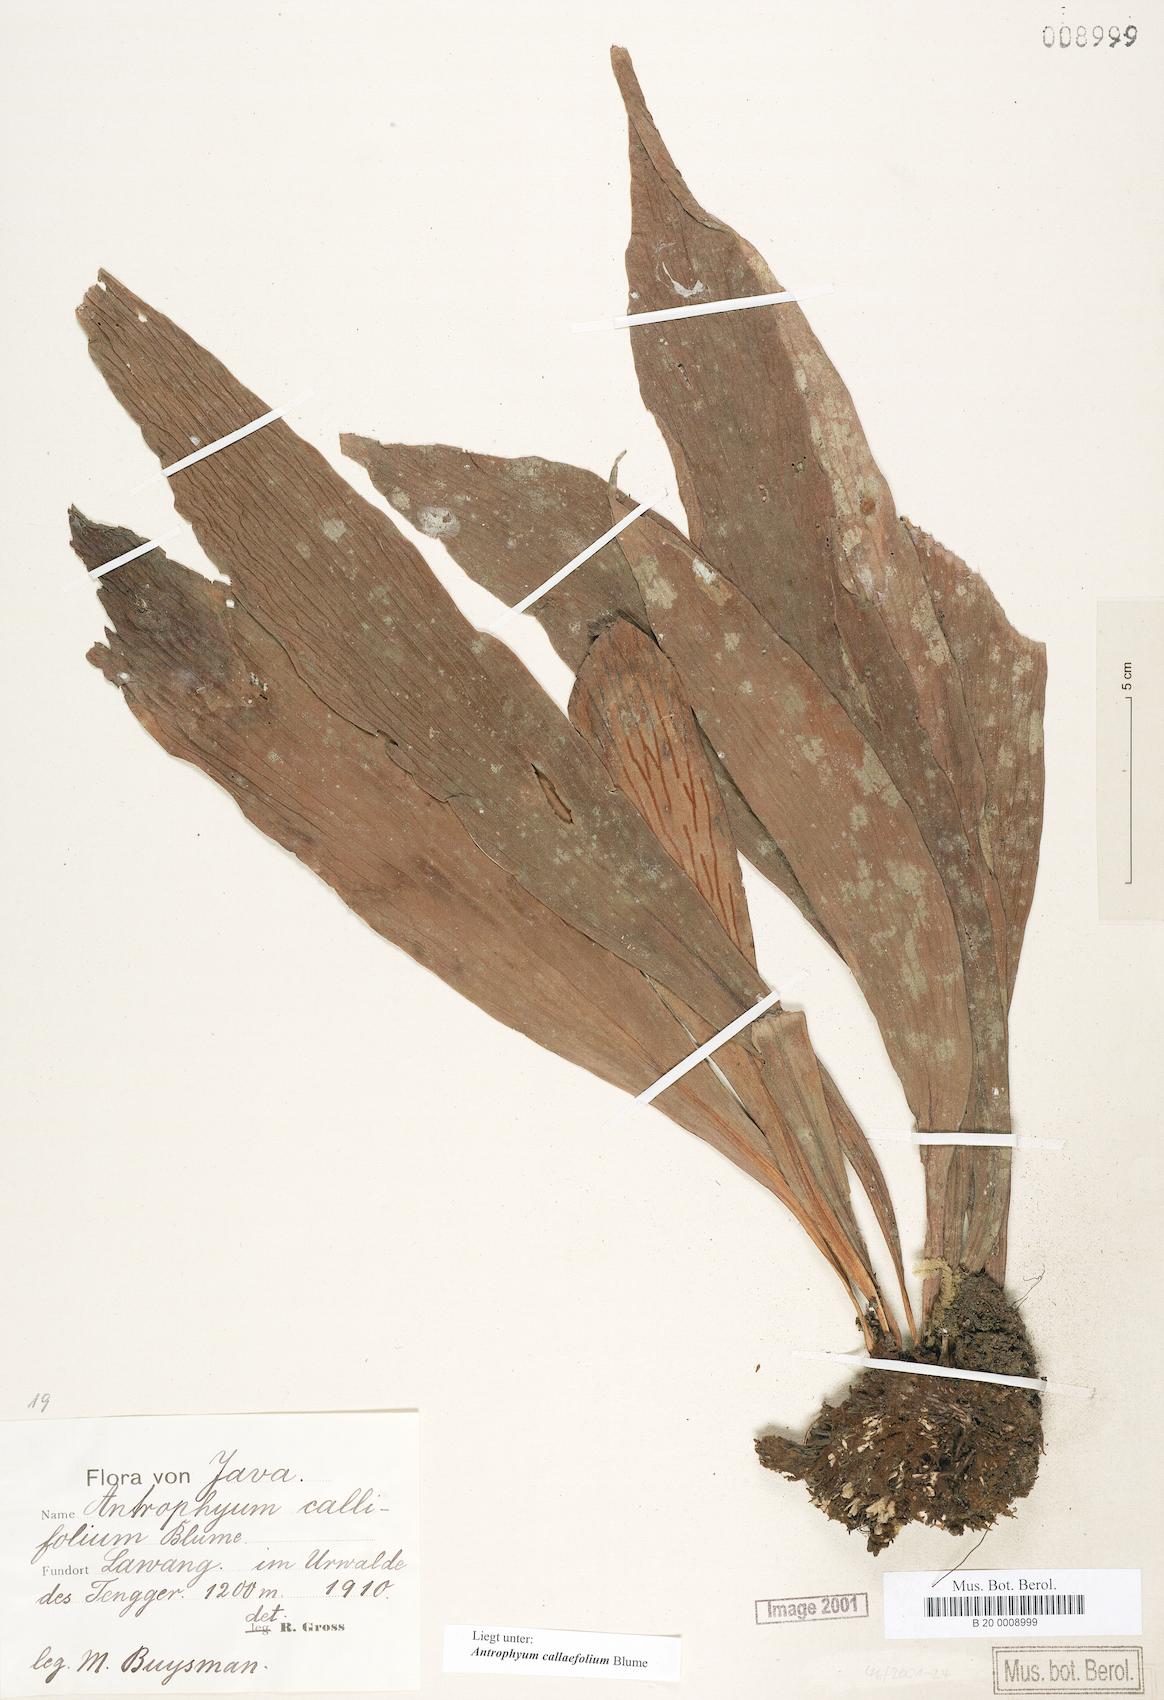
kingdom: Plantae
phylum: Tracheophyta
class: Polypodiopsida
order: Polypodiales
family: Pteridaceae
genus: Antrophyum
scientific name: Antrophyum callifolium
